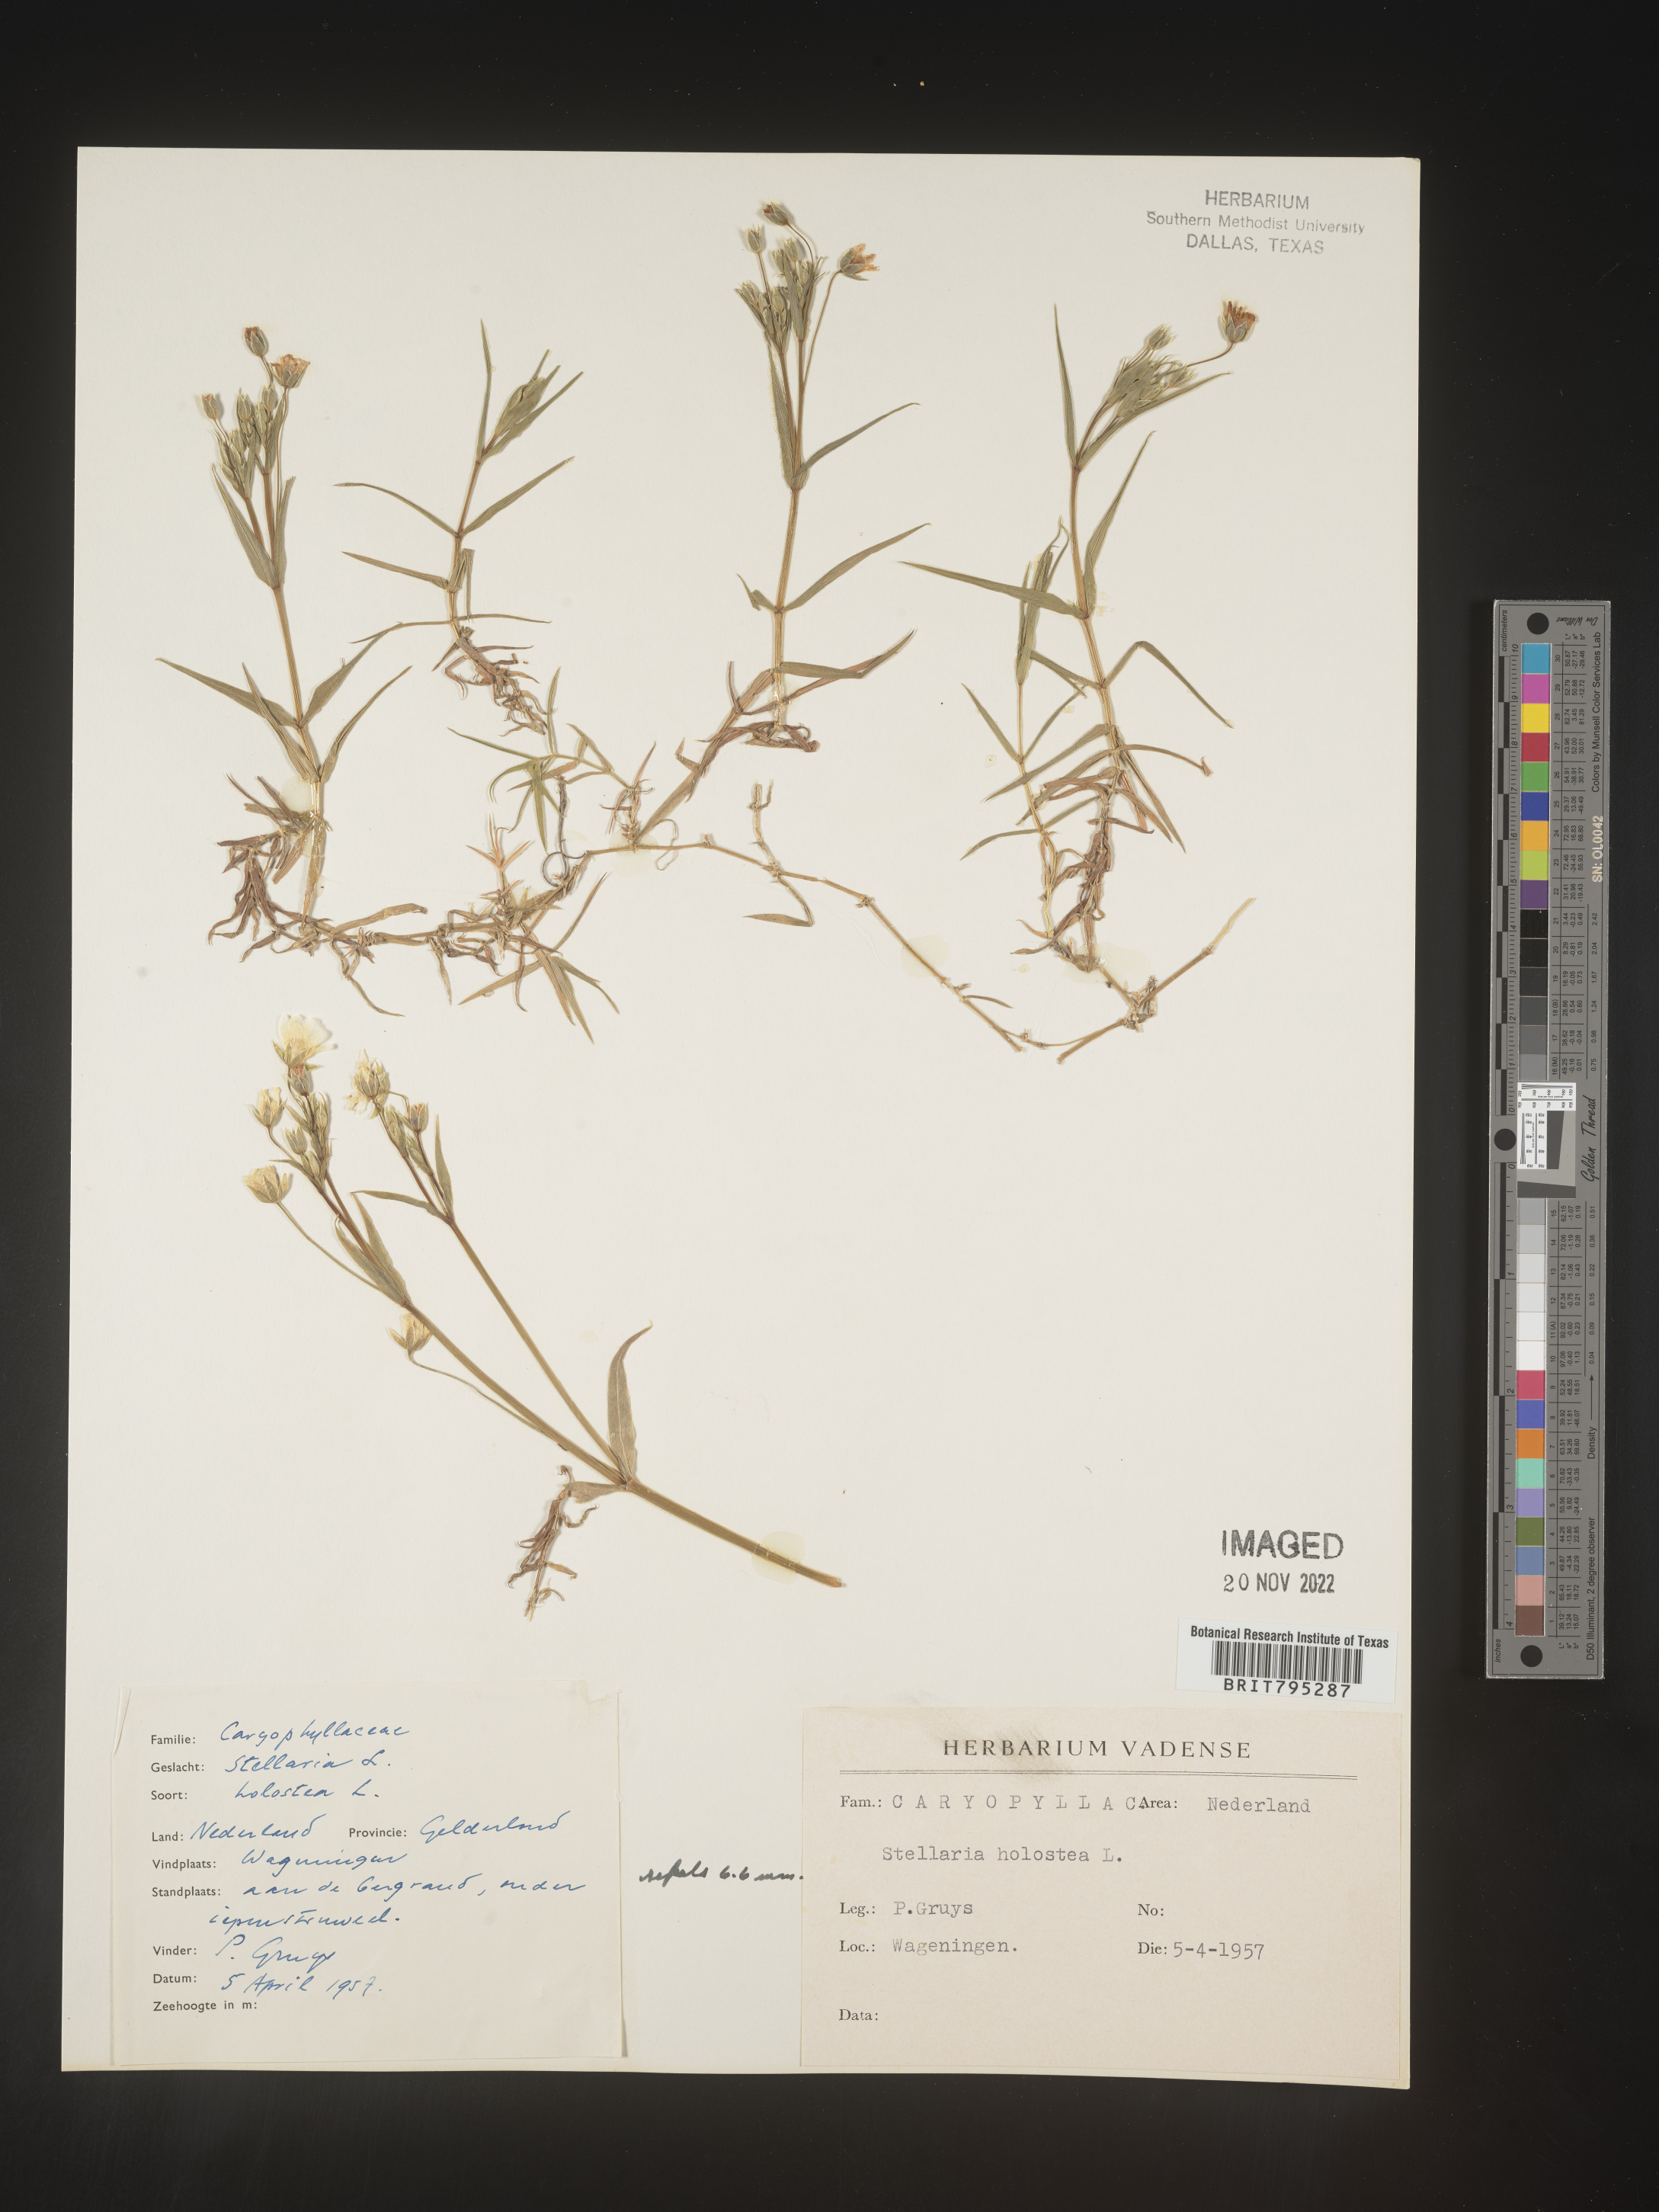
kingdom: Plantae
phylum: Tracheophyta
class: Magnoliopsida
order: Caryophyllales
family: Caryophyllaceae
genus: Stellaria
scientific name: Stellaria
